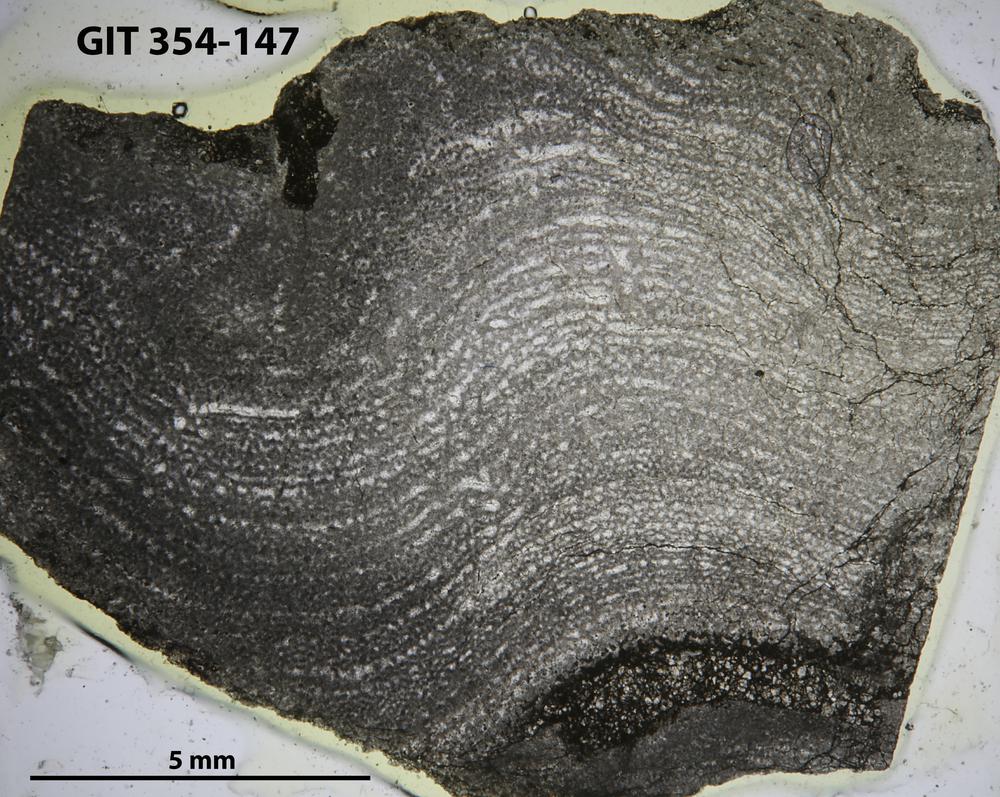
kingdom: Animalia
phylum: Porifera
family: Clathrodictyidae
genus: Clathrodictyon
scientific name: Clathrodictyon boreale
